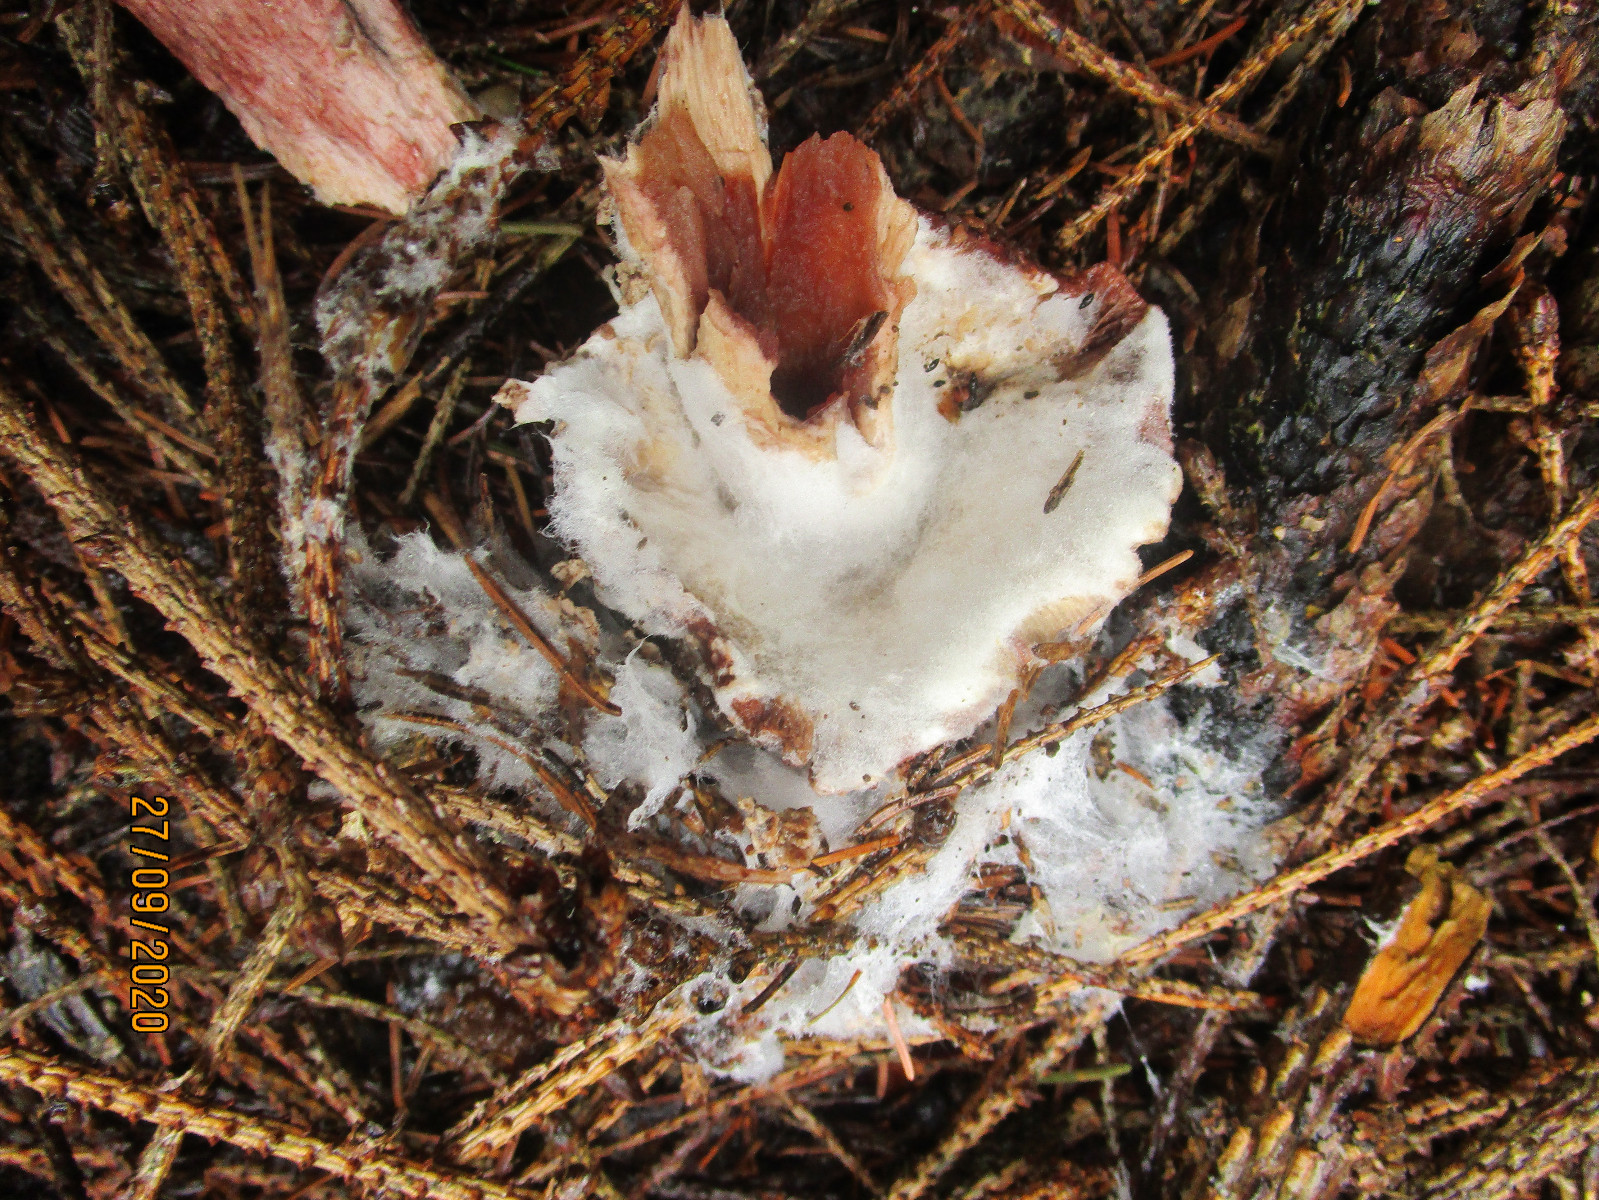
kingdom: Fungi
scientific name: Fungi
